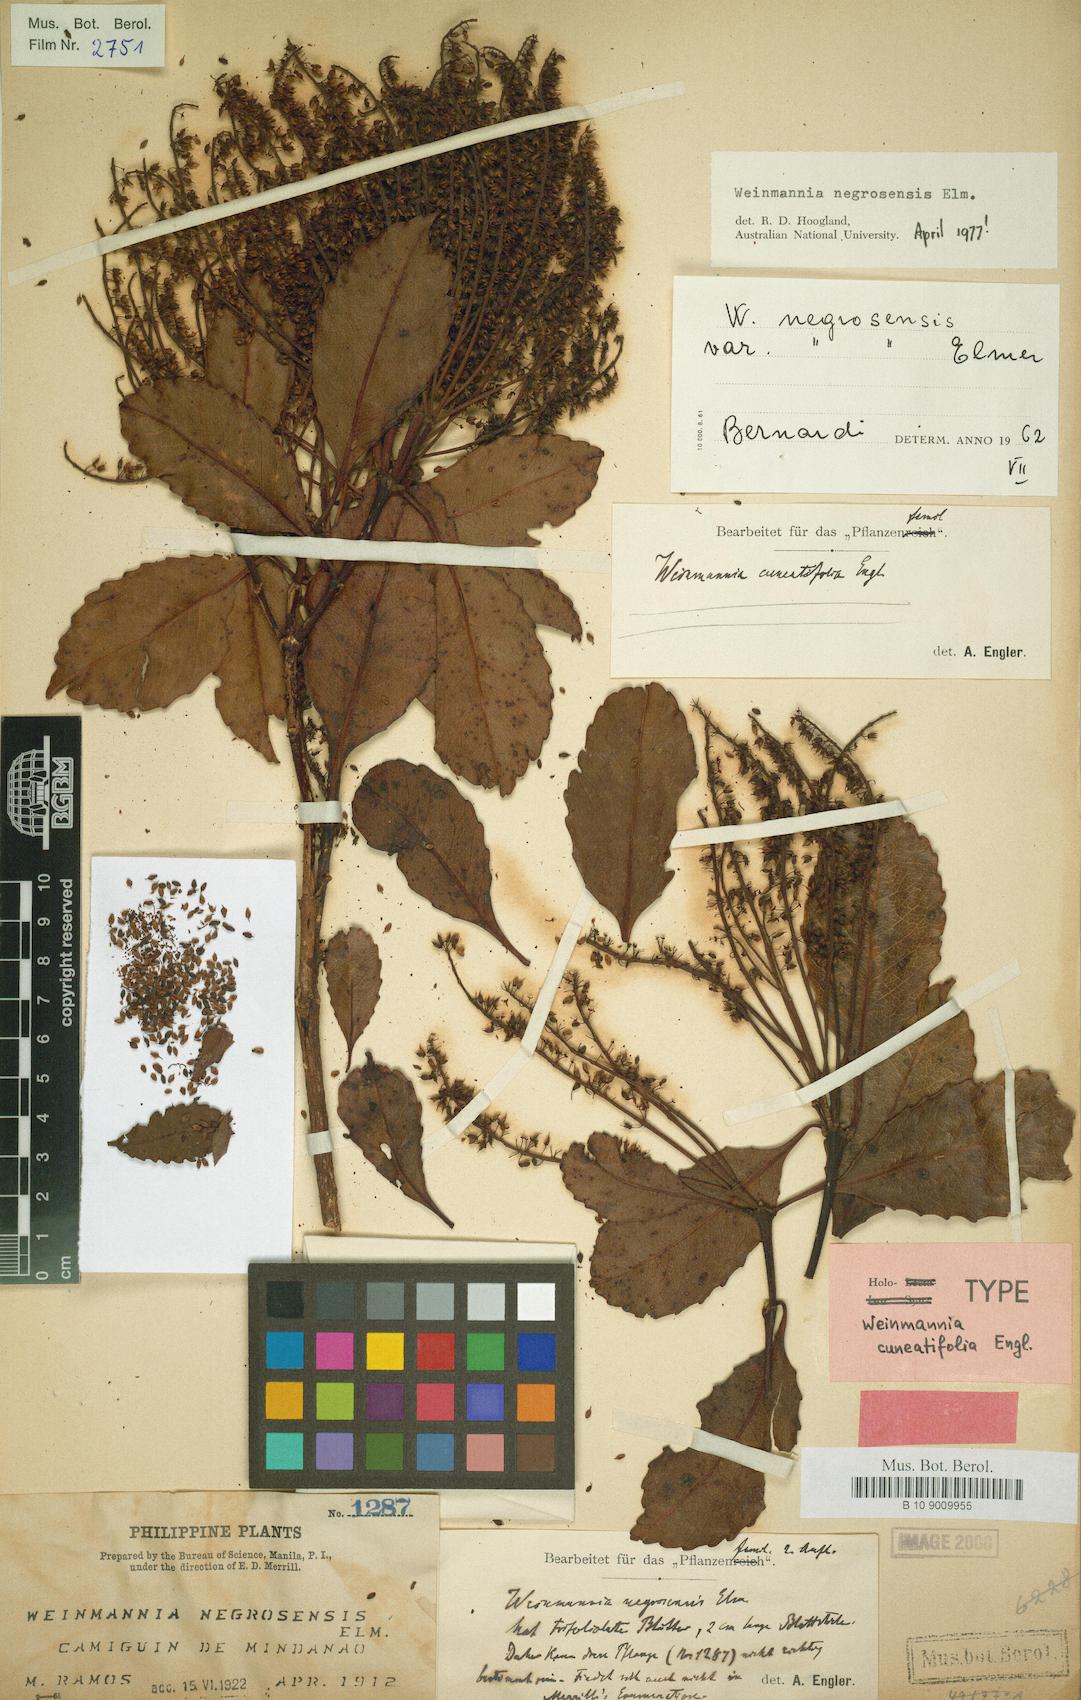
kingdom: Plantae
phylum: Tracheophyta
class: Magnoliopsida
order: Oxalidales
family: Cunoniaceae
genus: Pterophylla
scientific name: Pterophylla negrosensis
